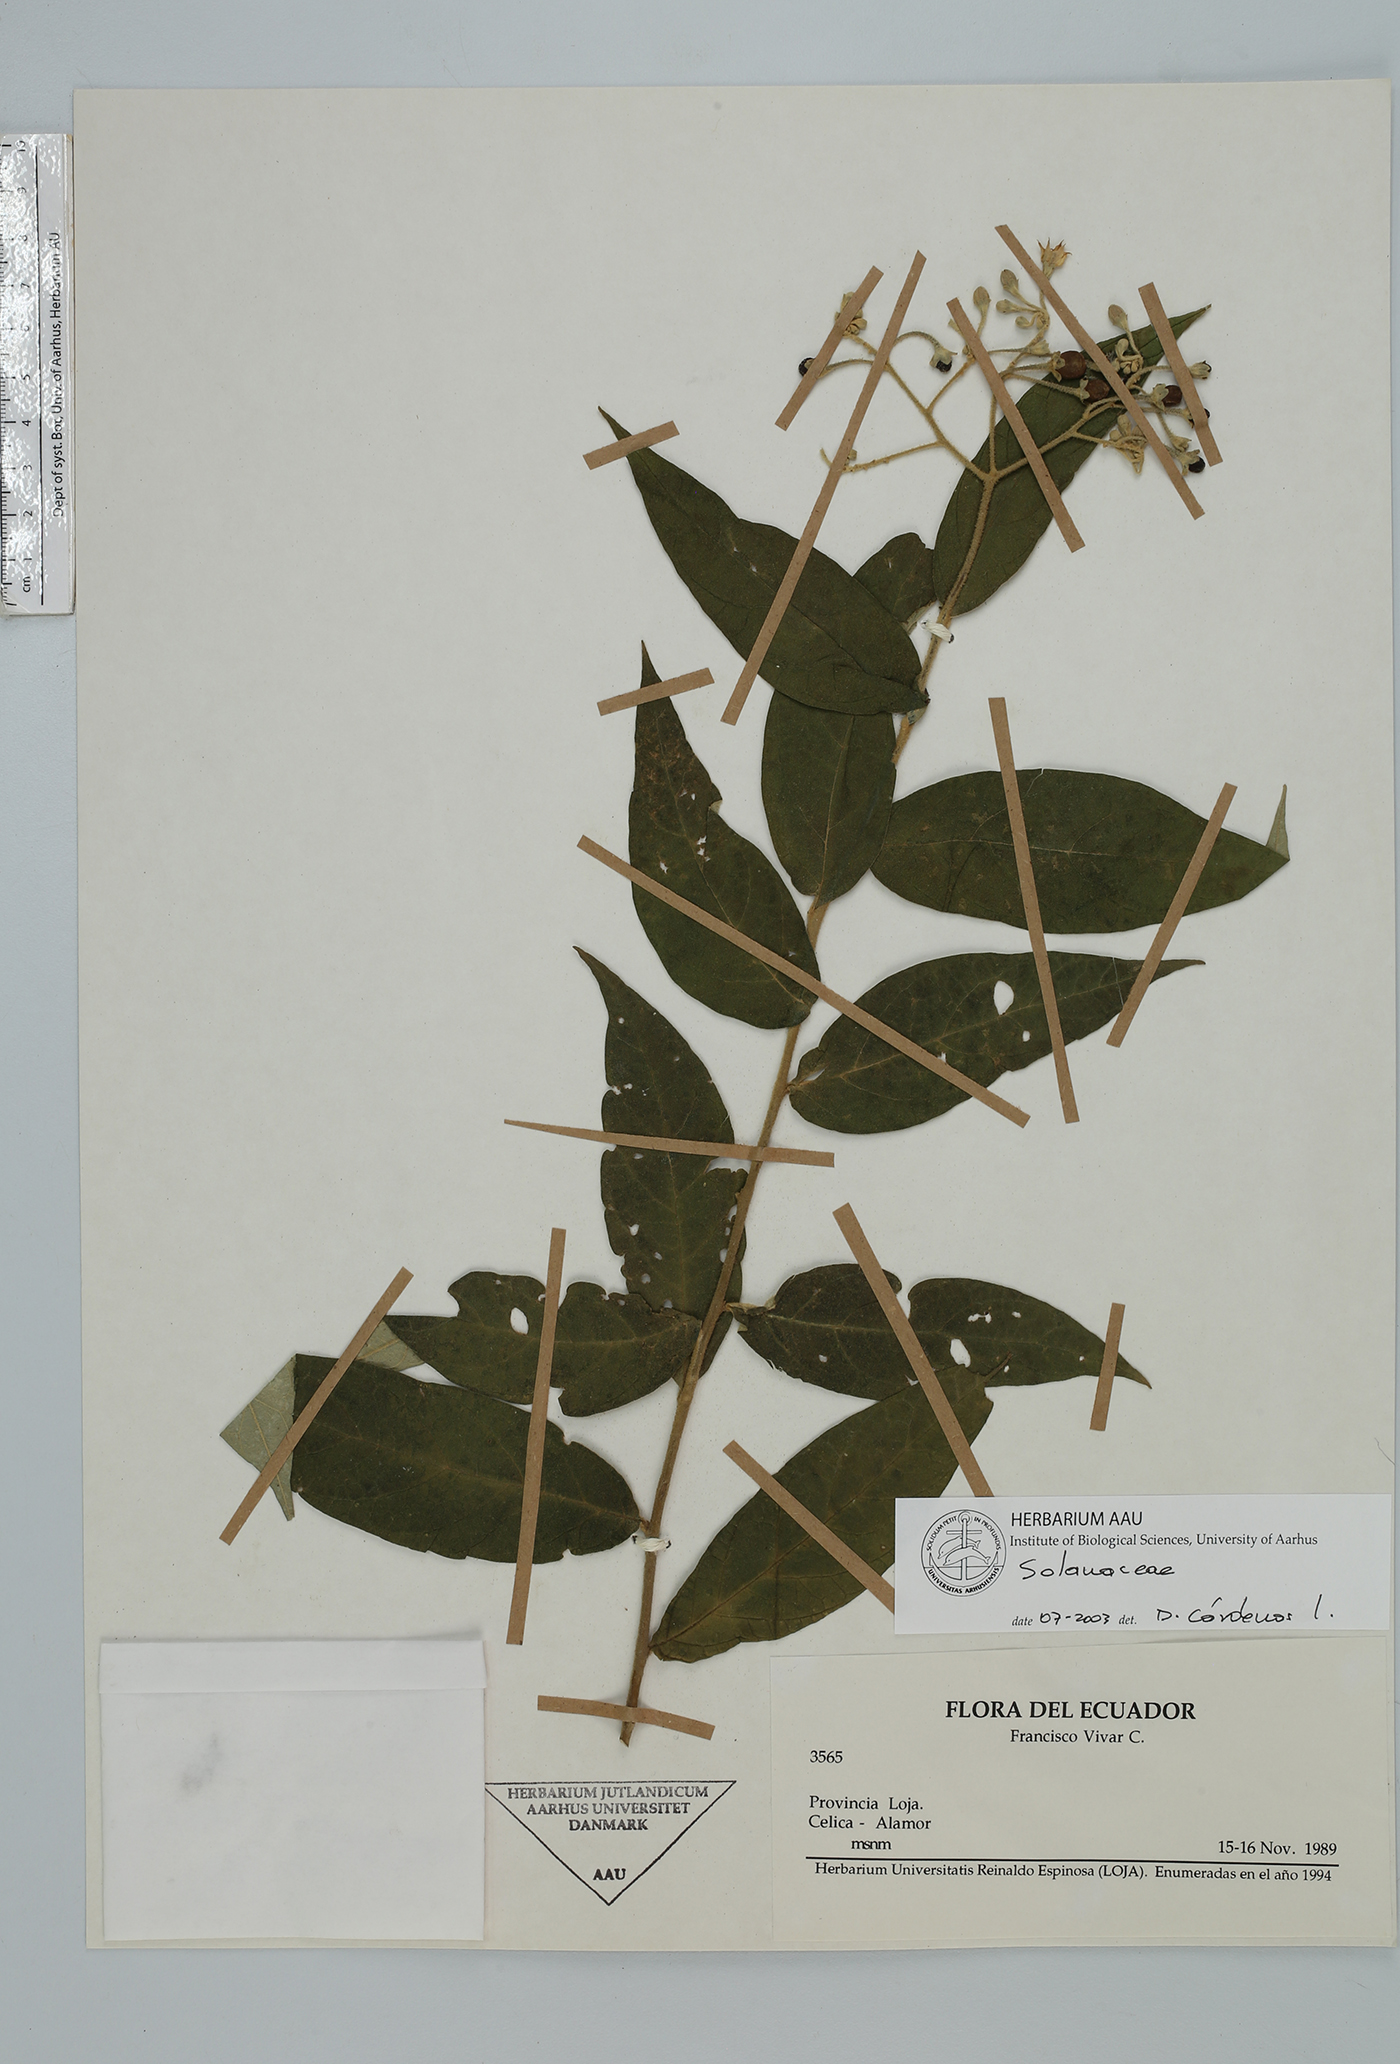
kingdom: Plantae
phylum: Tracheophyta
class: Magnoliopsida
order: Solanales
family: Solanaceae
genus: Solanum
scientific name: Solanum
